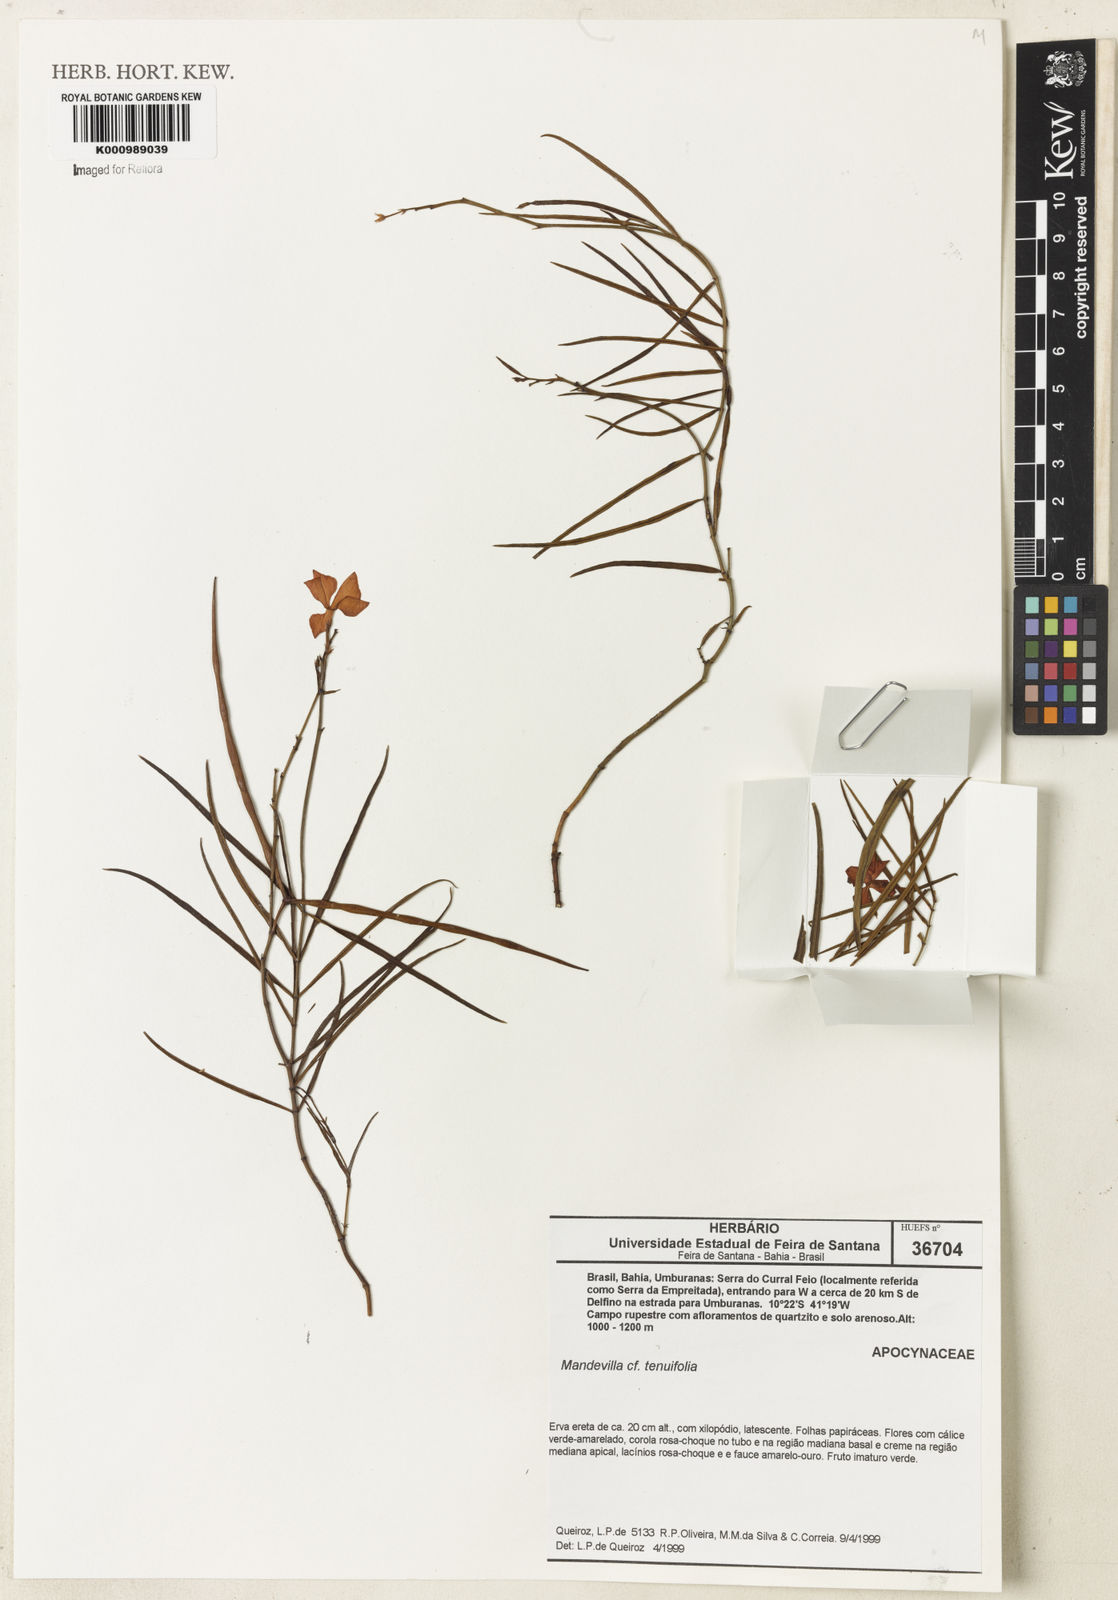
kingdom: Plantae
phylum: Tracheophyta
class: Magnoliopsida
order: Gentianales
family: Apocynaceae
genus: Mandevilla
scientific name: Mandevilla tenuifolia
